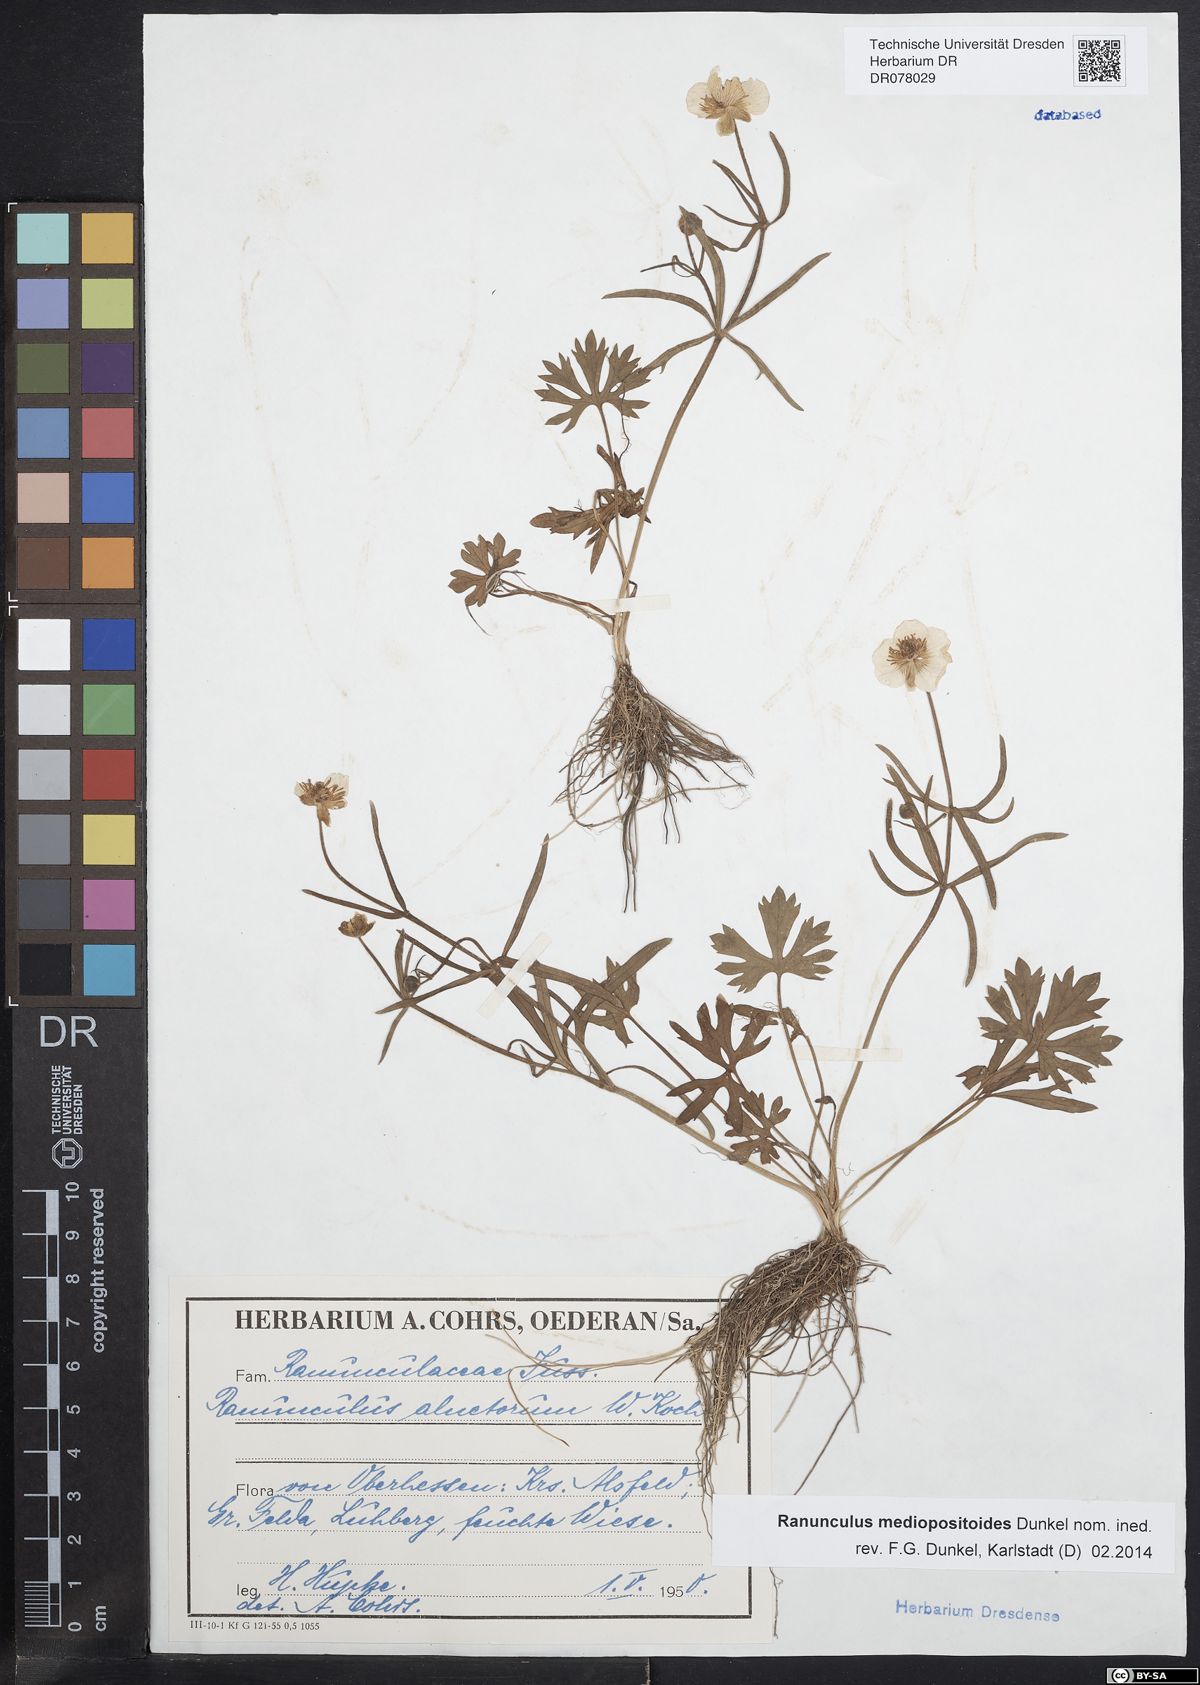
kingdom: Plantae
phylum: Tracheophyta
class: Magnoliopsida
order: Ranunculales
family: Ranunculaceae
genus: Ranunculus
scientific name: Ranunculus auricomus
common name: Goldilocks buttercup
